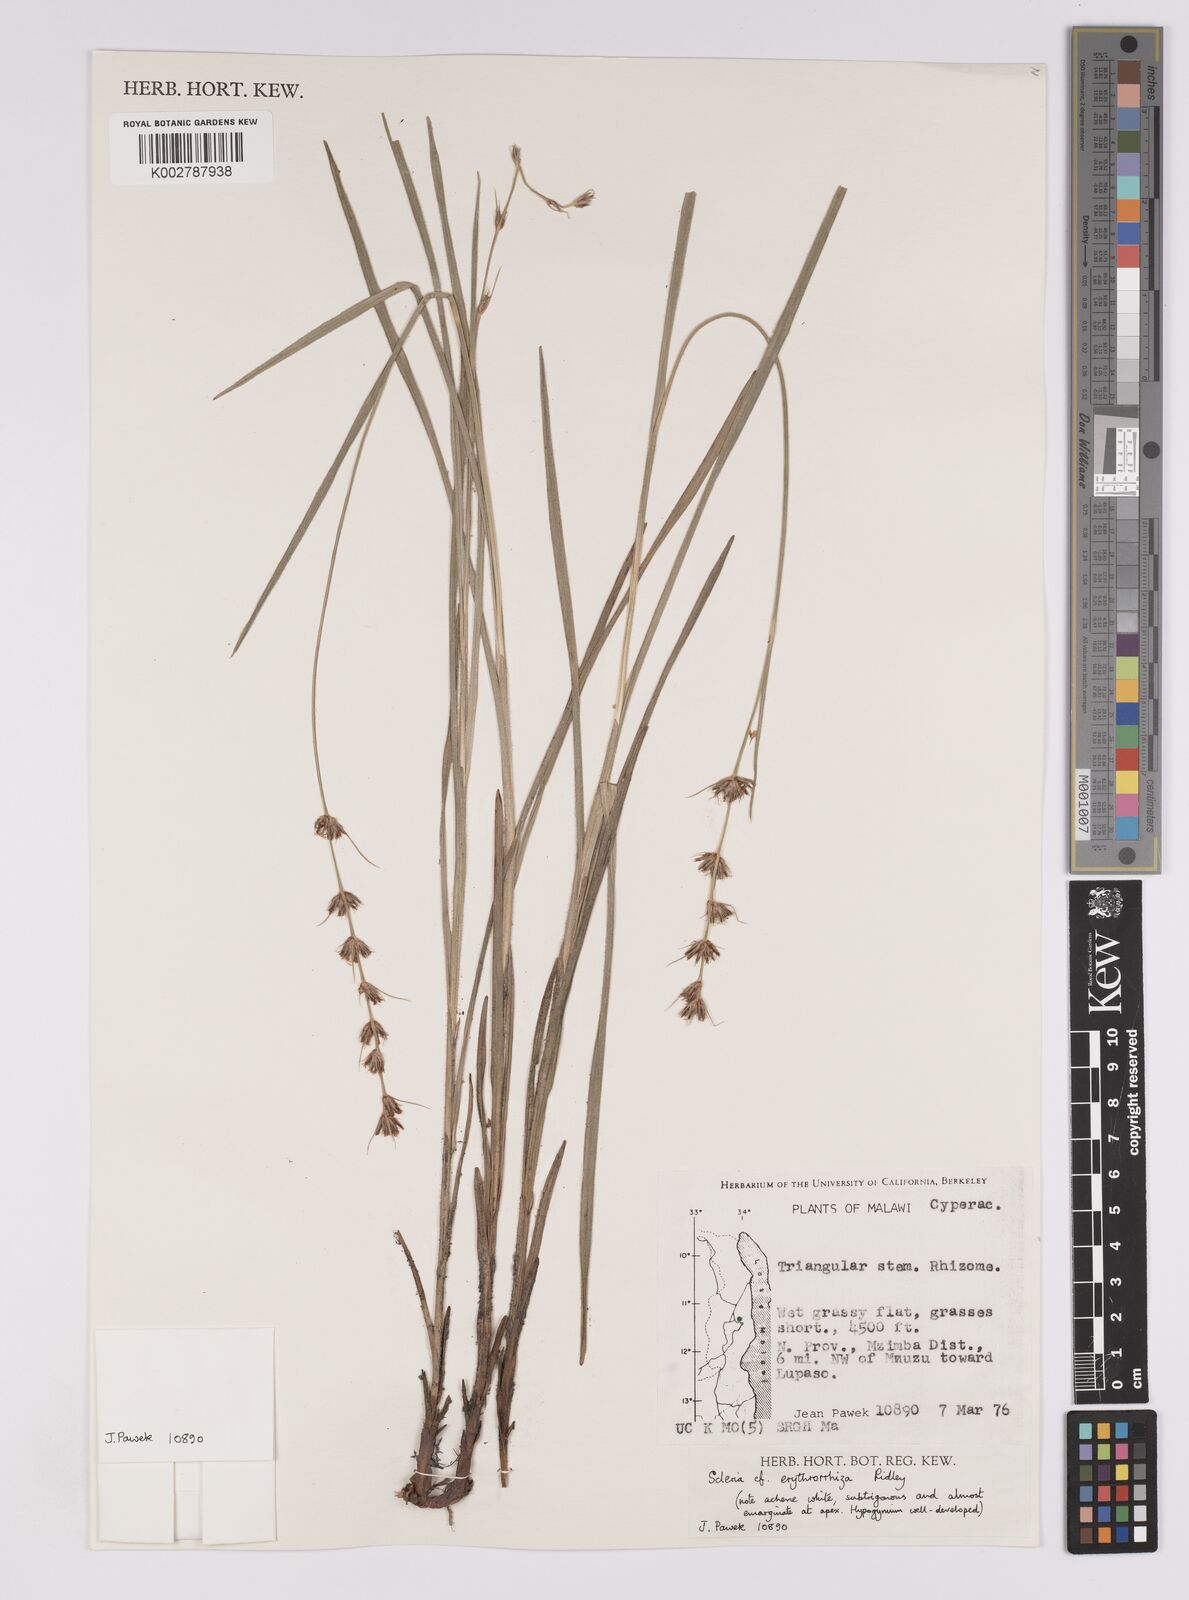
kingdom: Plantae
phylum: Tracheophyta
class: Liliopsida
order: Poales
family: Cyperaceae
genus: Scleria
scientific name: Scleria erythrorrhiza
